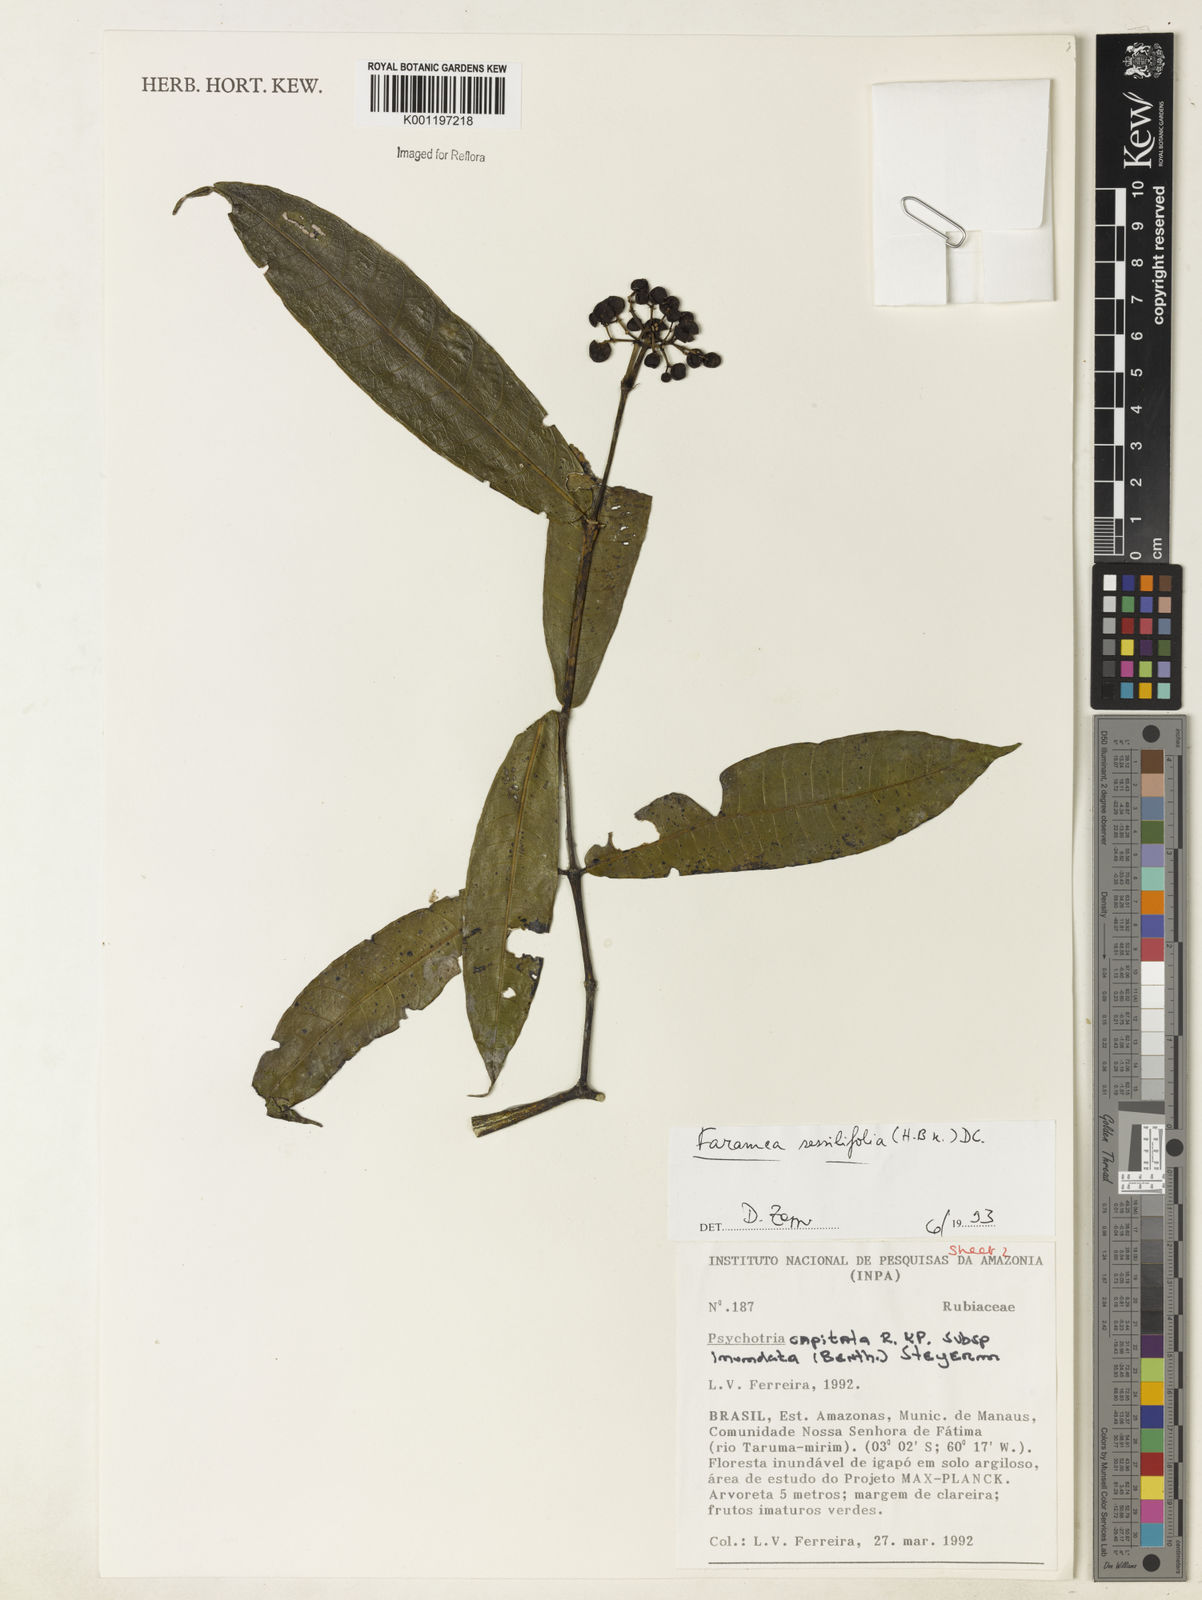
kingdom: Plantae
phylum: Tracheophyta
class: Magnoliopsida
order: Gentianales
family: Rubiaceae
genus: Faramea
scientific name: Faramea sessilifolia
